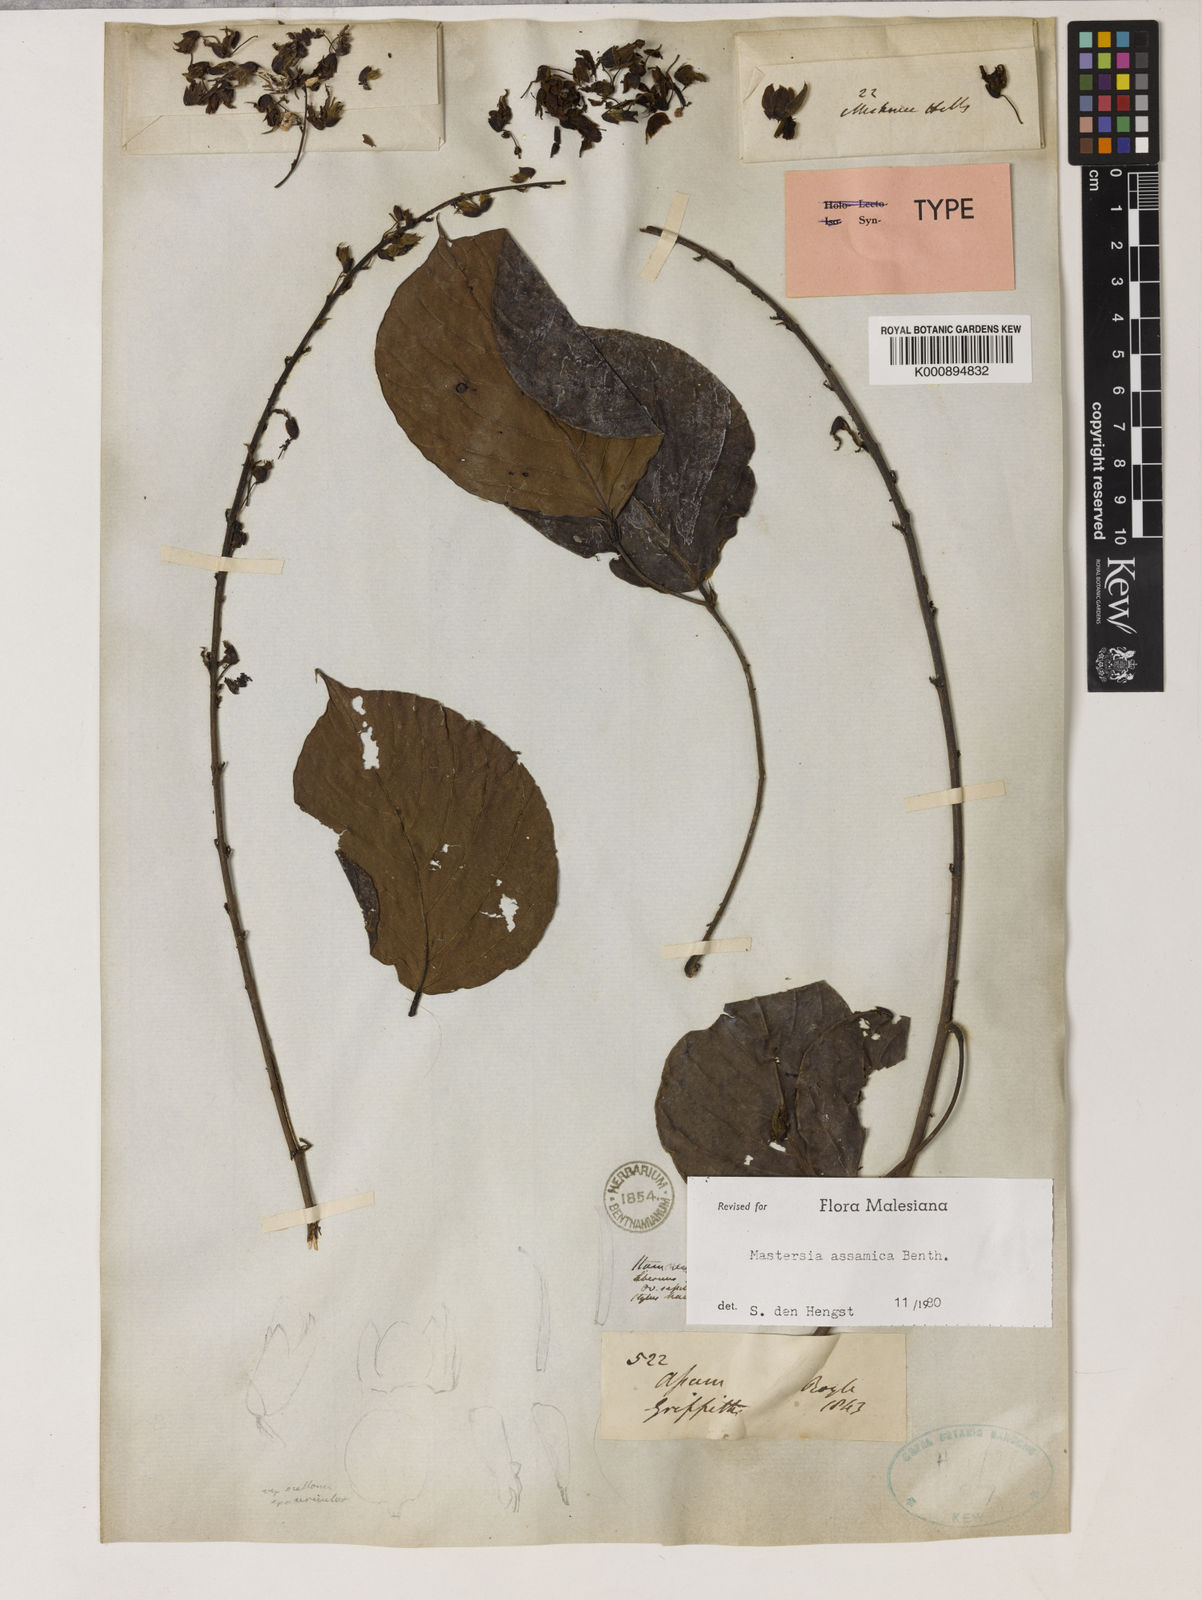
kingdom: Plantae
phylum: Tracheophyta
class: Magnoliopsida
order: Fabales
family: Fabaceae
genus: Mastersia
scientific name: Mastersia assamica
